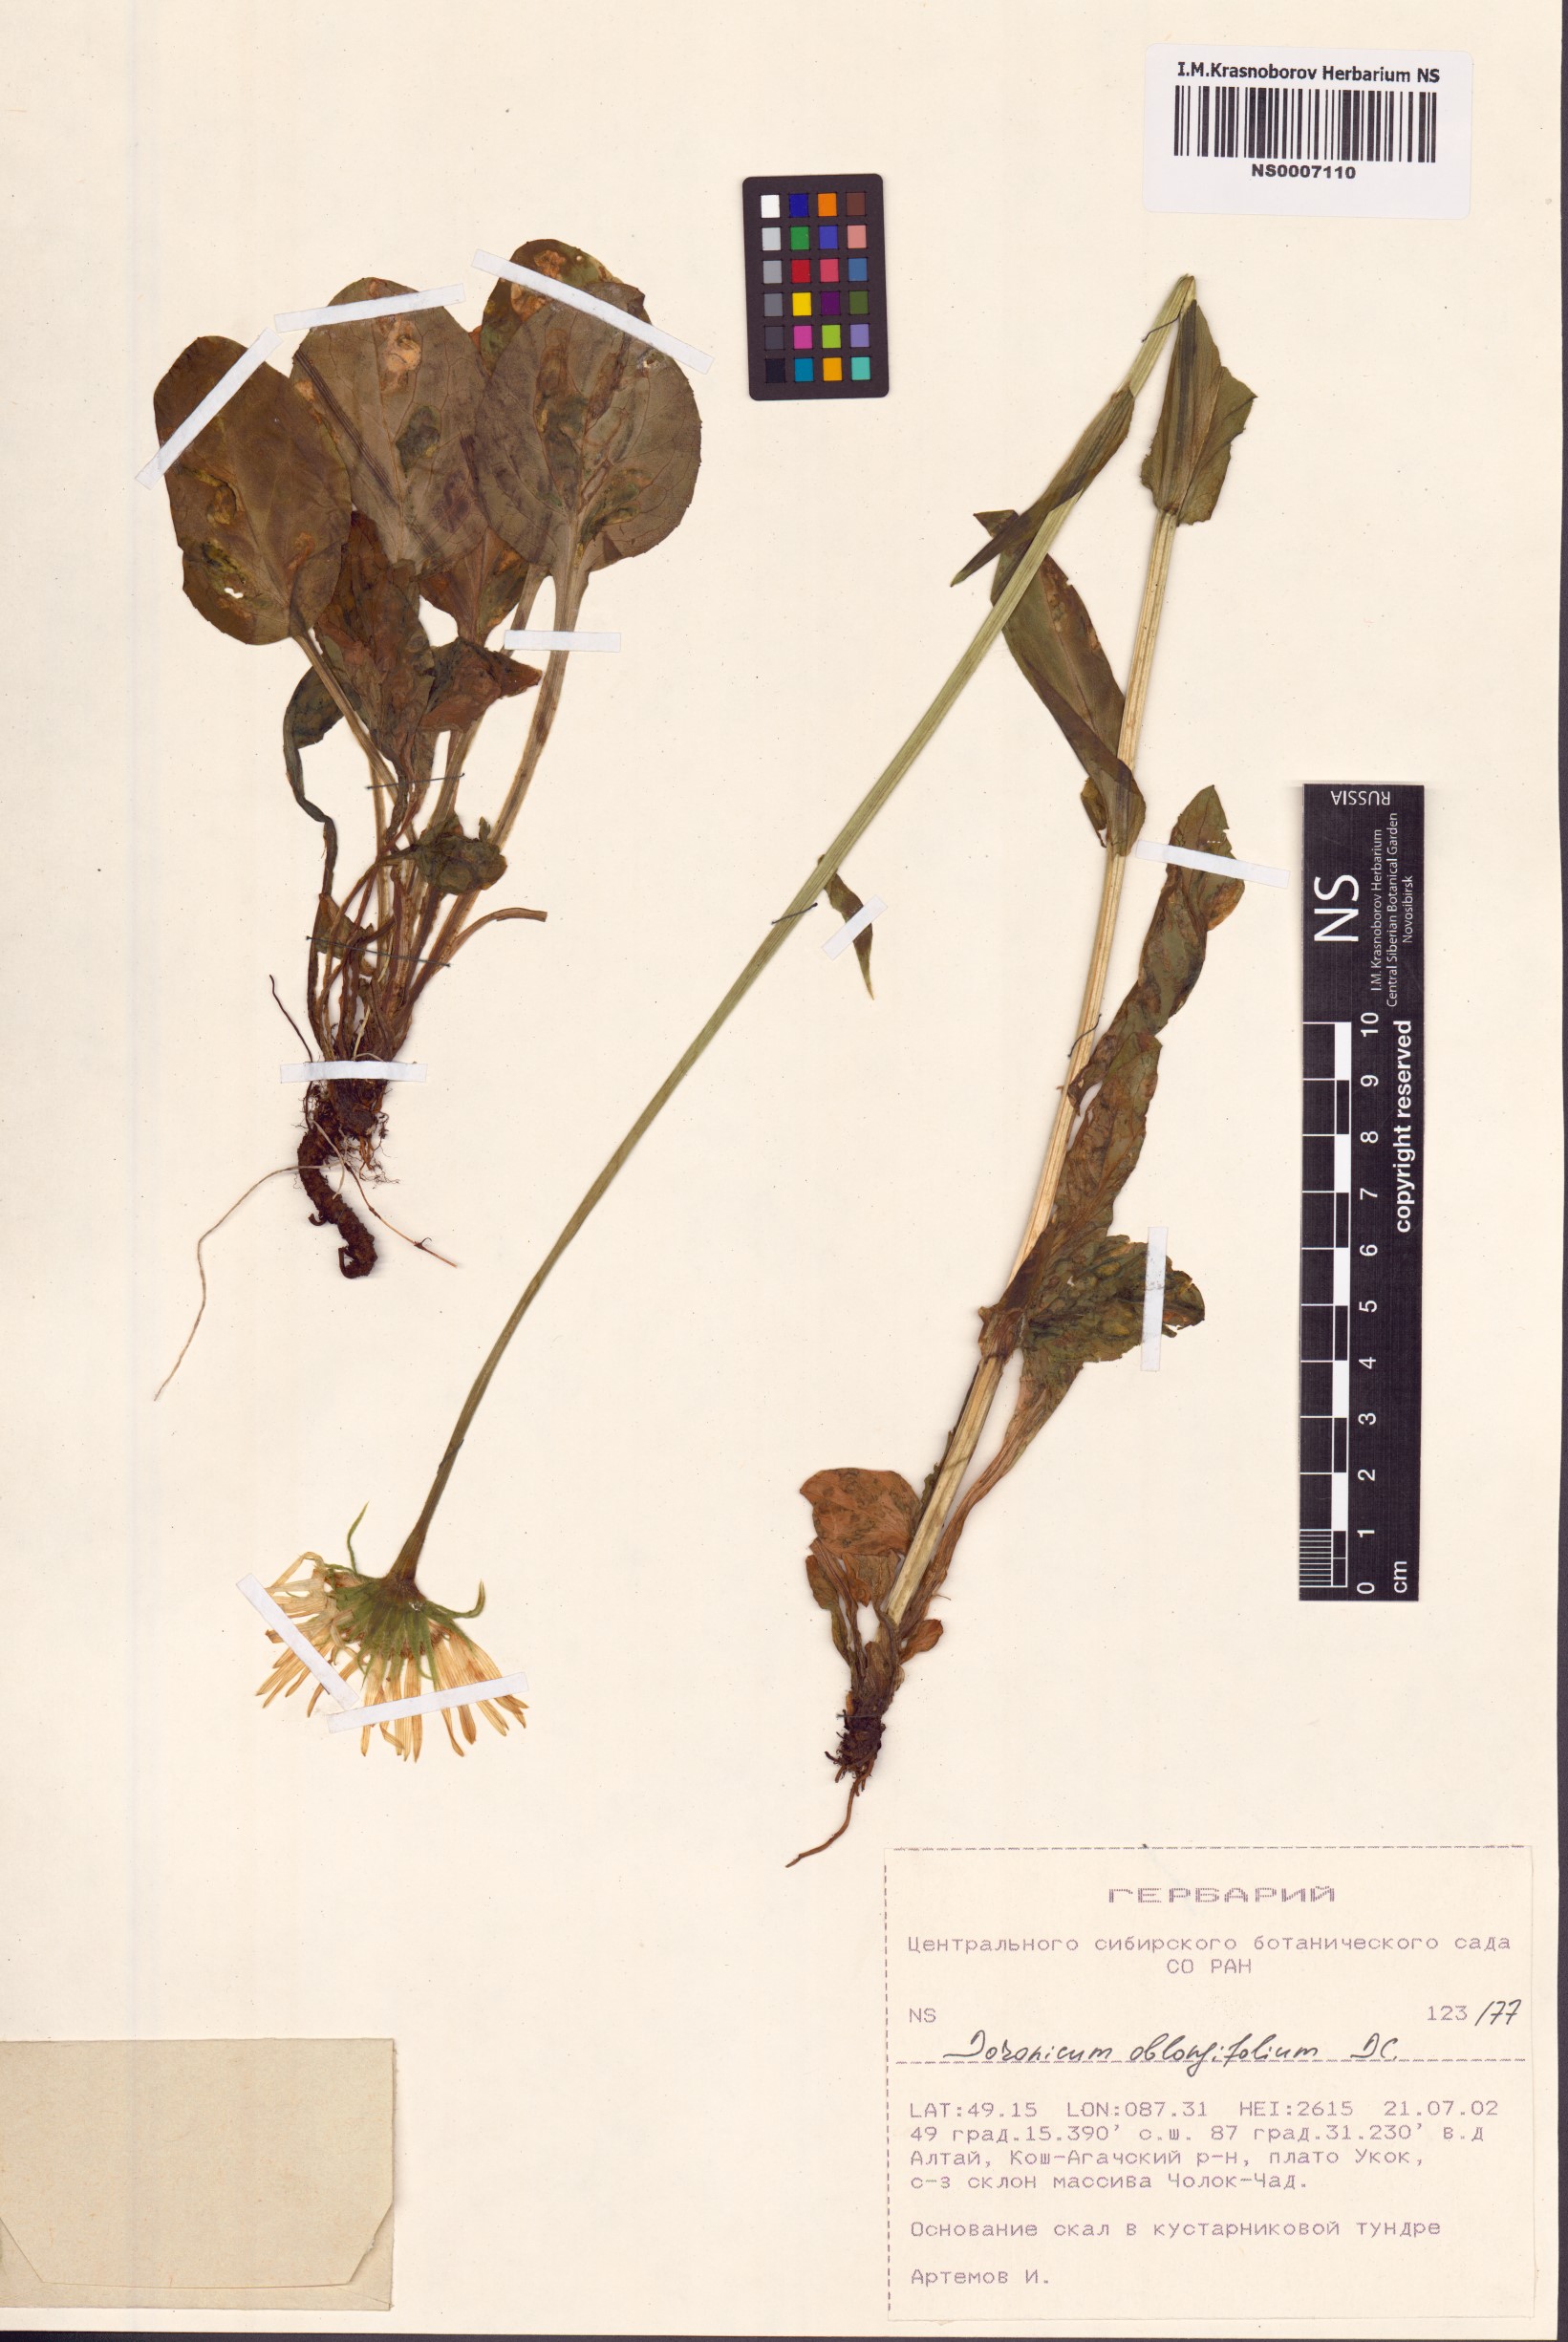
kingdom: Plantae
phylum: Tracheophyta
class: Magnoliopsida
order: Asterales
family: Asteraceae
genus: Doronicum
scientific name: Doronicum oblongifolium
